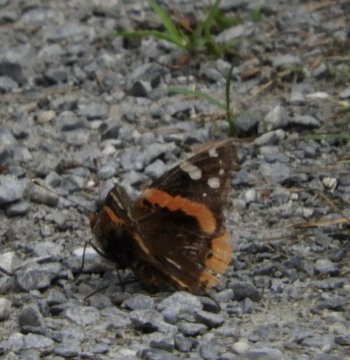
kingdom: Animalia
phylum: Arthropoda
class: Insecta
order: Lepidoptera
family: Nymphalidae
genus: Vanessa
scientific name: Vanessa atalanta
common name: Red Admiral
